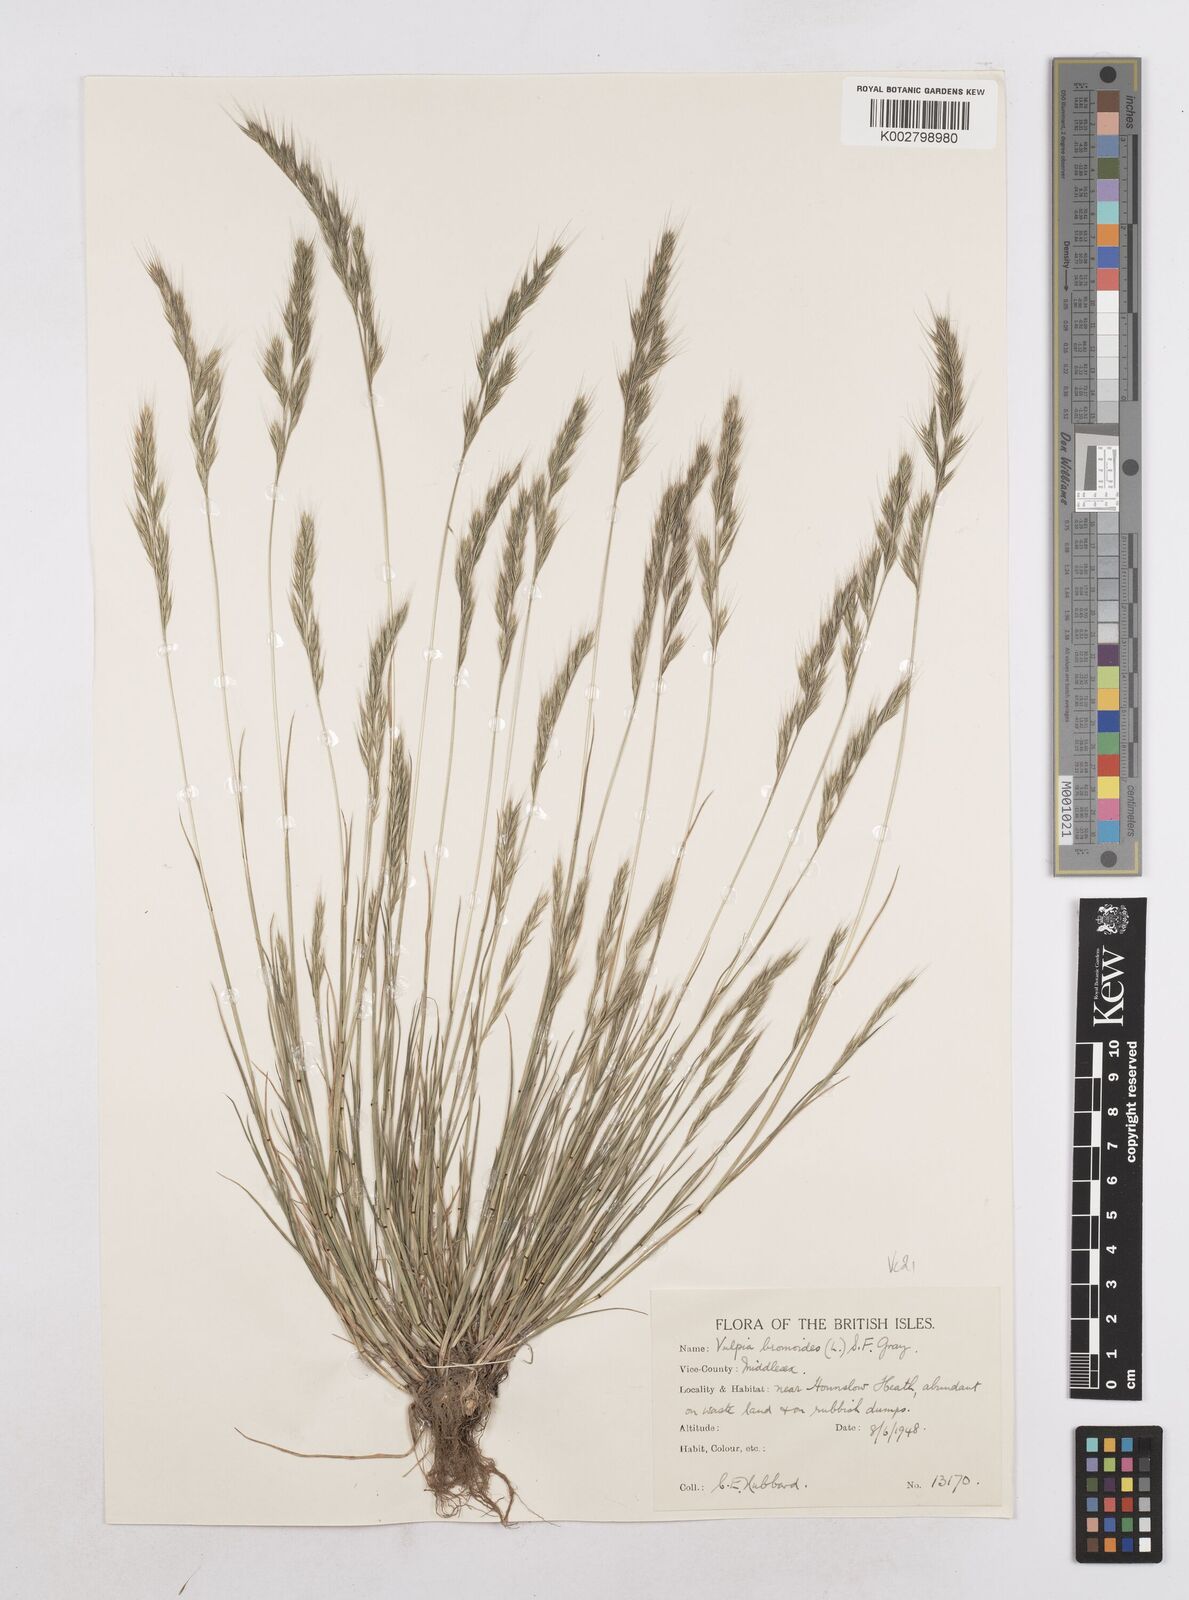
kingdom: Plantae
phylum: Tracheophyta
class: Liliopsida
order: Poales
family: Poaceae
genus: Festuca
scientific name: Festuca bromoides
